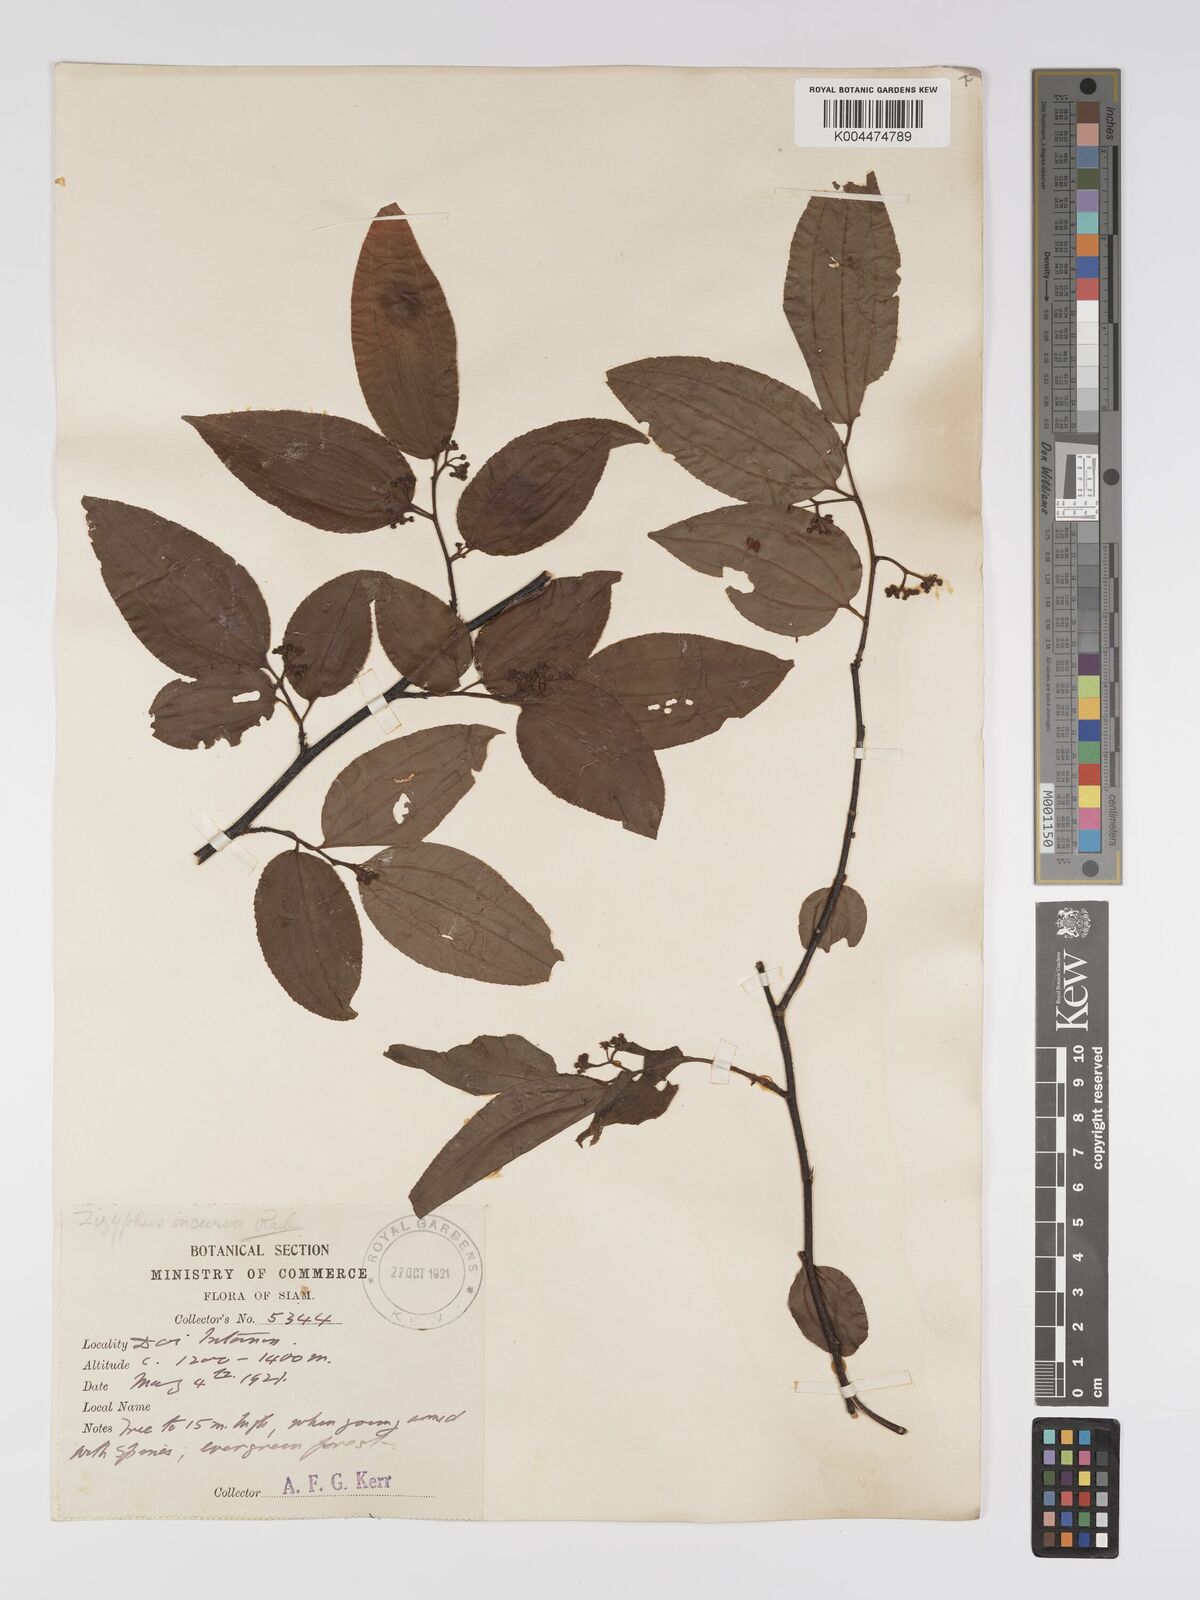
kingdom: Plantae
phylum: Tracheophyta
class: Magnoliopsida
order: Rosales
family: Rhamnaceae
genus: Ziziphus
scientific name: Ziziphus incurva
